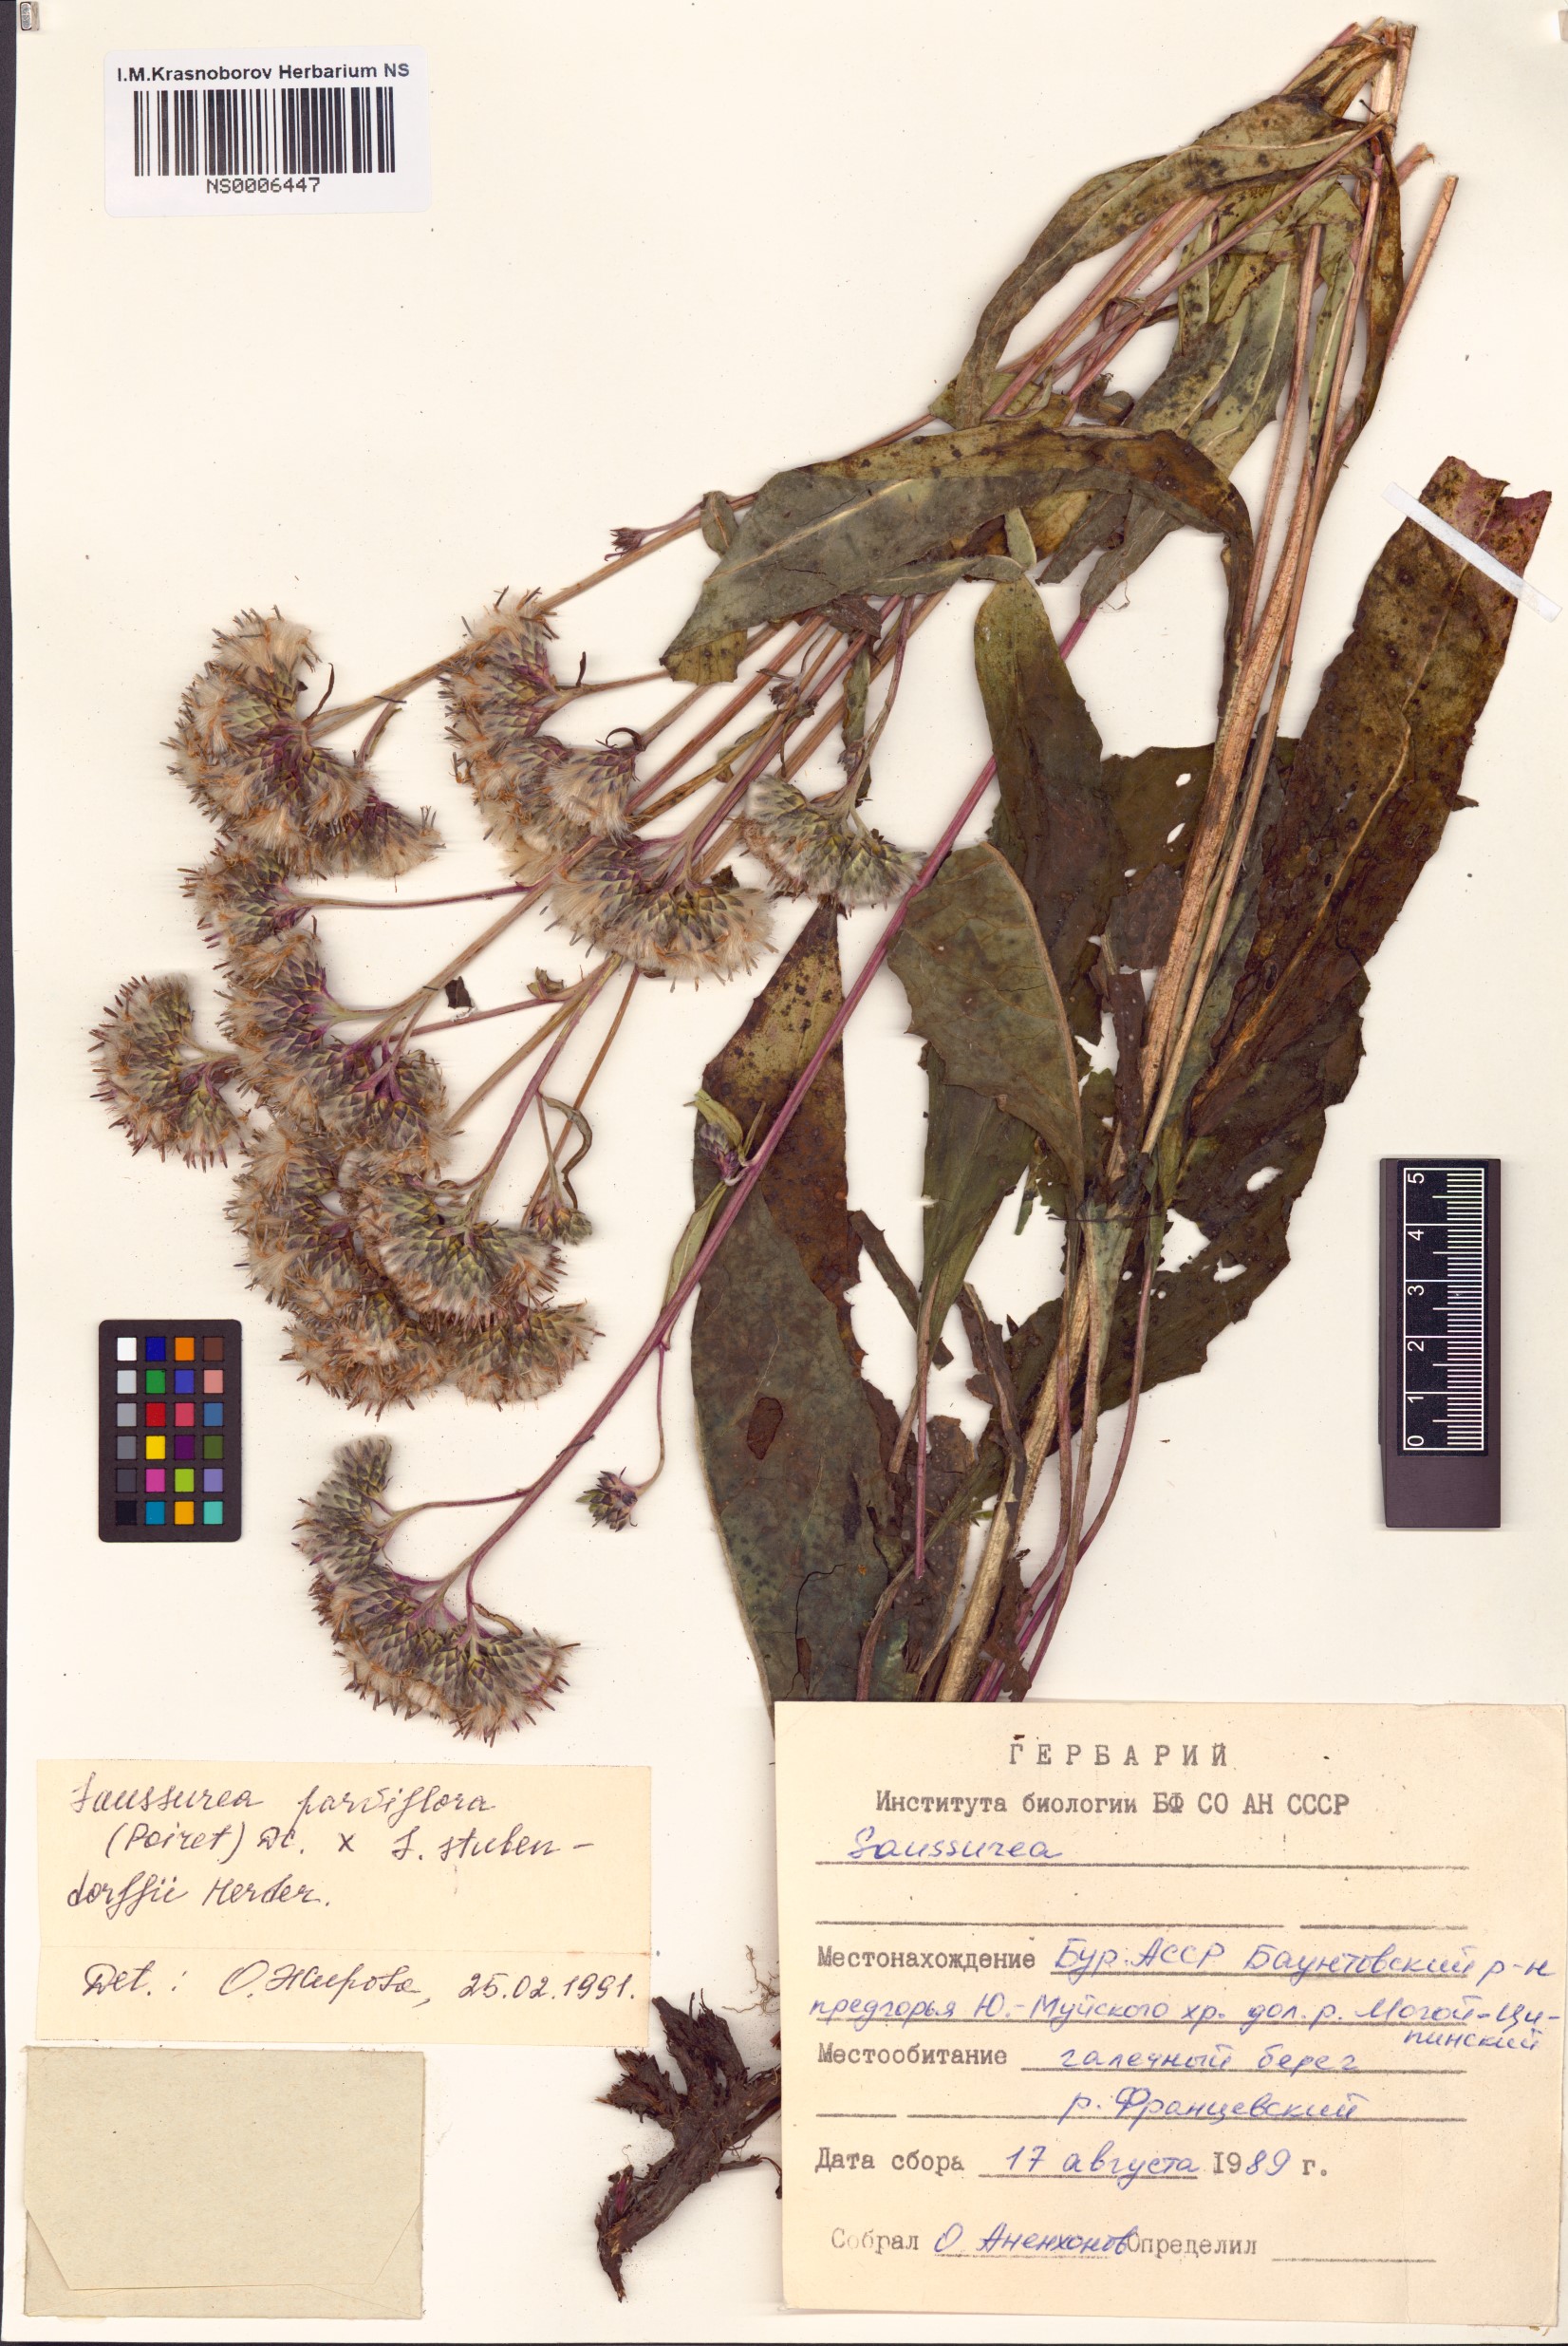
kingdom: Plantae
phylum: Tracheophyta
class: Magnoliopsida
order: Asterales
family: Asteraceae
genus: Saussurea
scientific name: Saussurea parviflora
